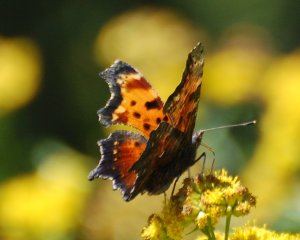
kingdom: Animalia
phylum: Arthropoda
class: Insecta
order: Lepidoptera
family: Nymphalidae
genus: Polygonia
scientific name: Polygonia progne
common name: Gray Comma
